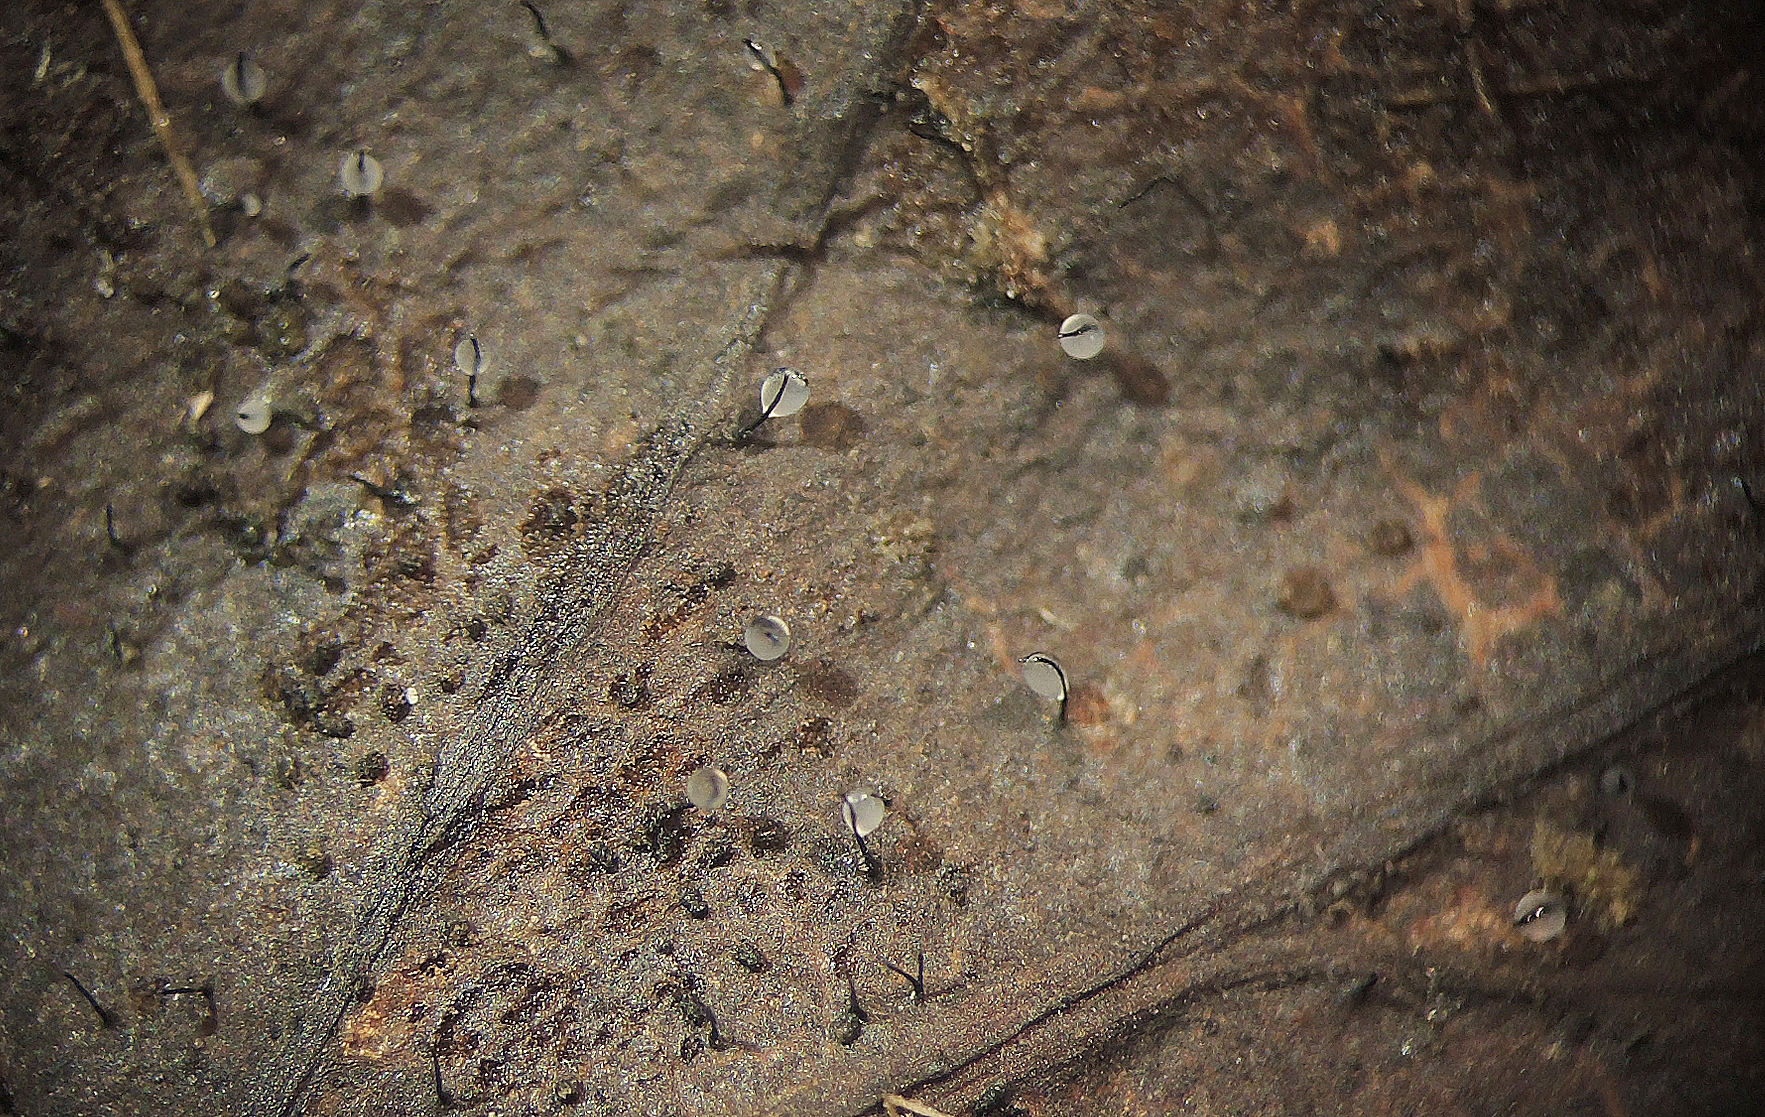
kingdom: Fungi
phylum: Ascomycota
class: Sordariomycetes
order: Diaporthales
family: Gnomoniaceae
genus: Ophiognomonia
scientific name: Ophiognomonia setacea
